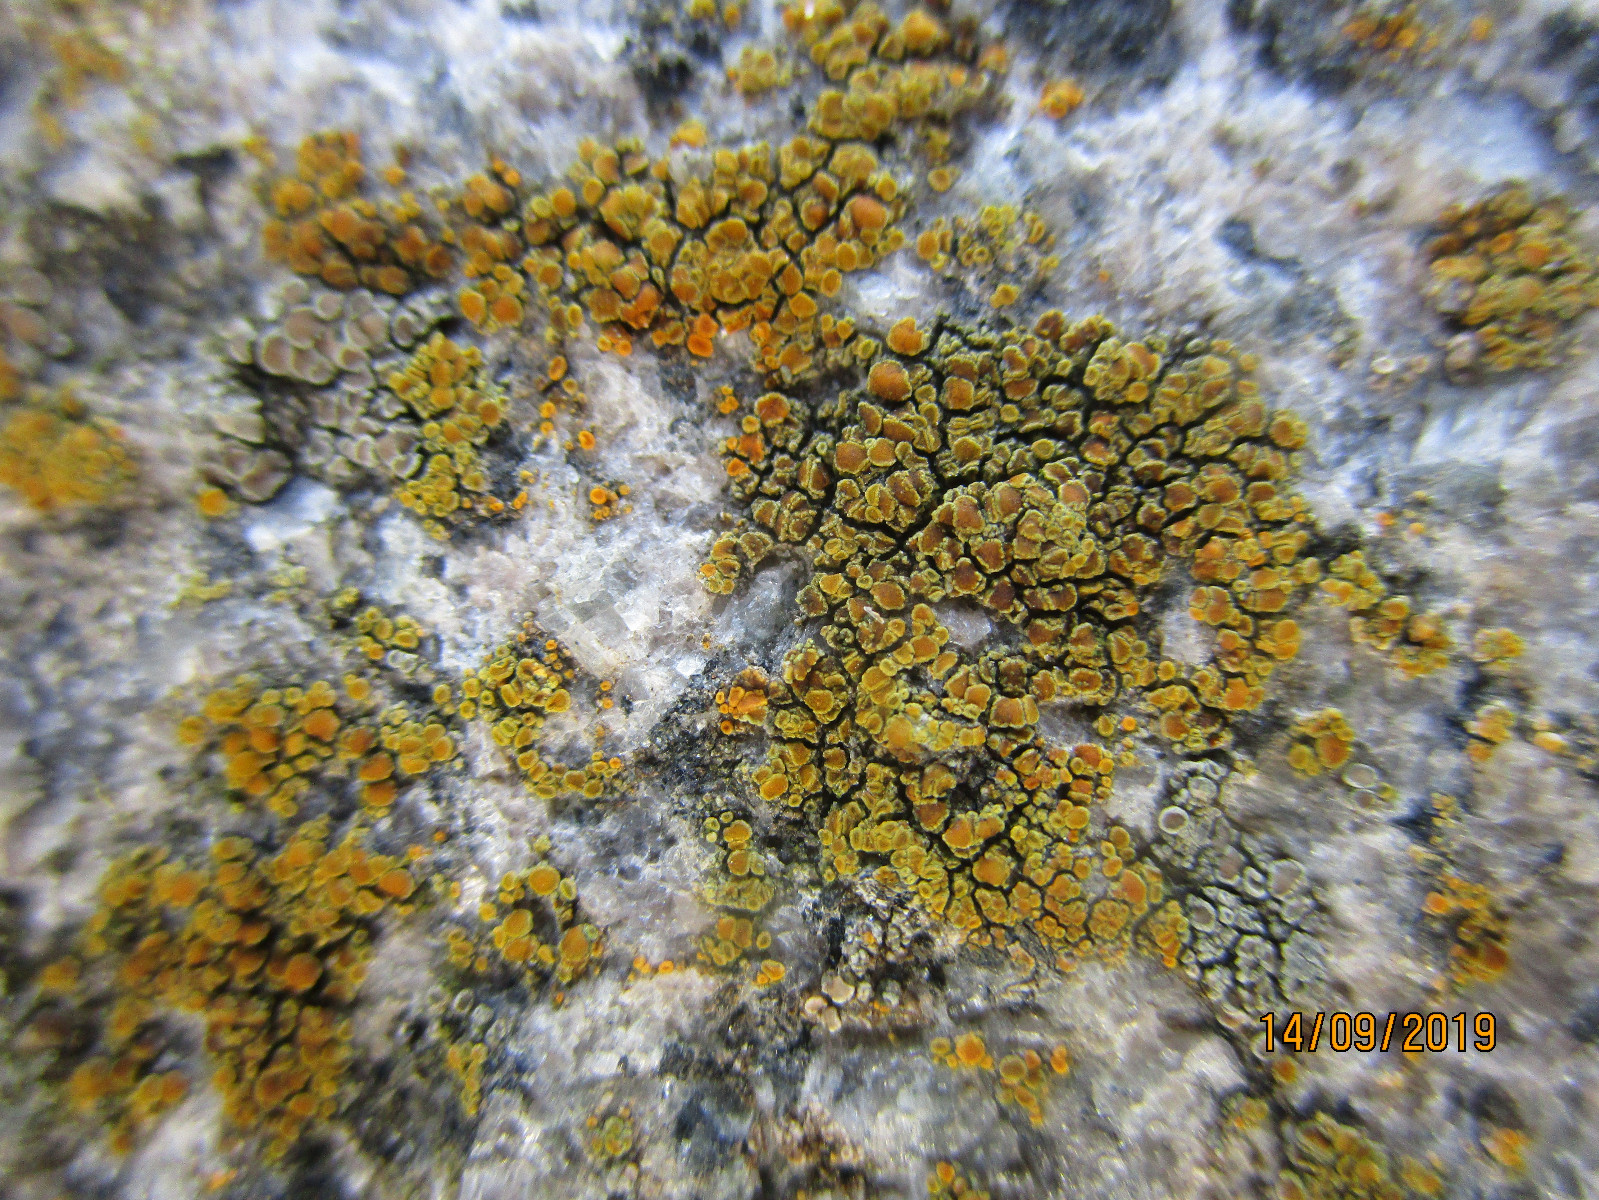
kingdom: Fungi
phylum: Ascomycota
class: Lecanoromycetes
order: Teloschistales
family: Teloschistaceae
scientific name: Teloschistaceae
